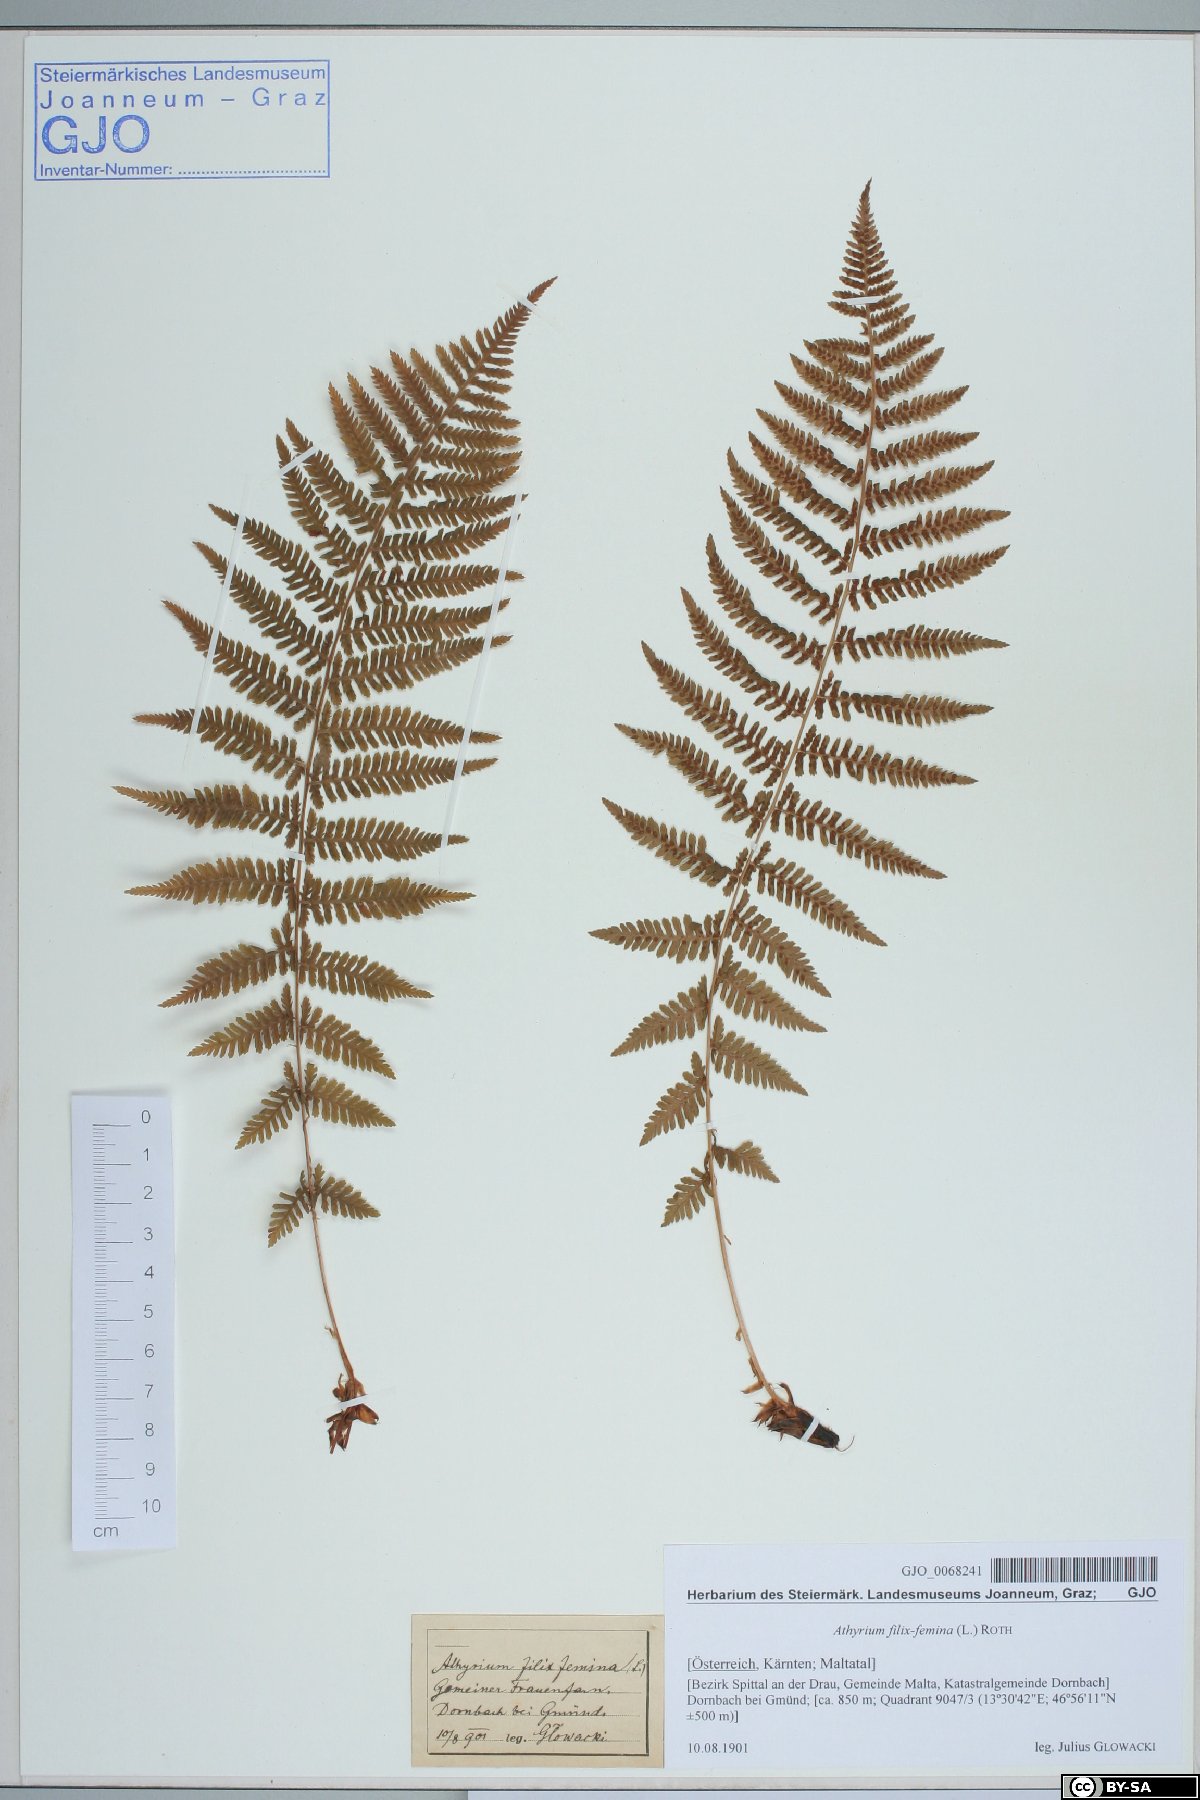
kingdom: Plantae
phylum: Tracheophyta
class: Polypodiopsida
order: Polypodiales
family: Athyriaceae
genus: Athyrium
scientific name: Athyrium filix-femina
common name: Lady fern
